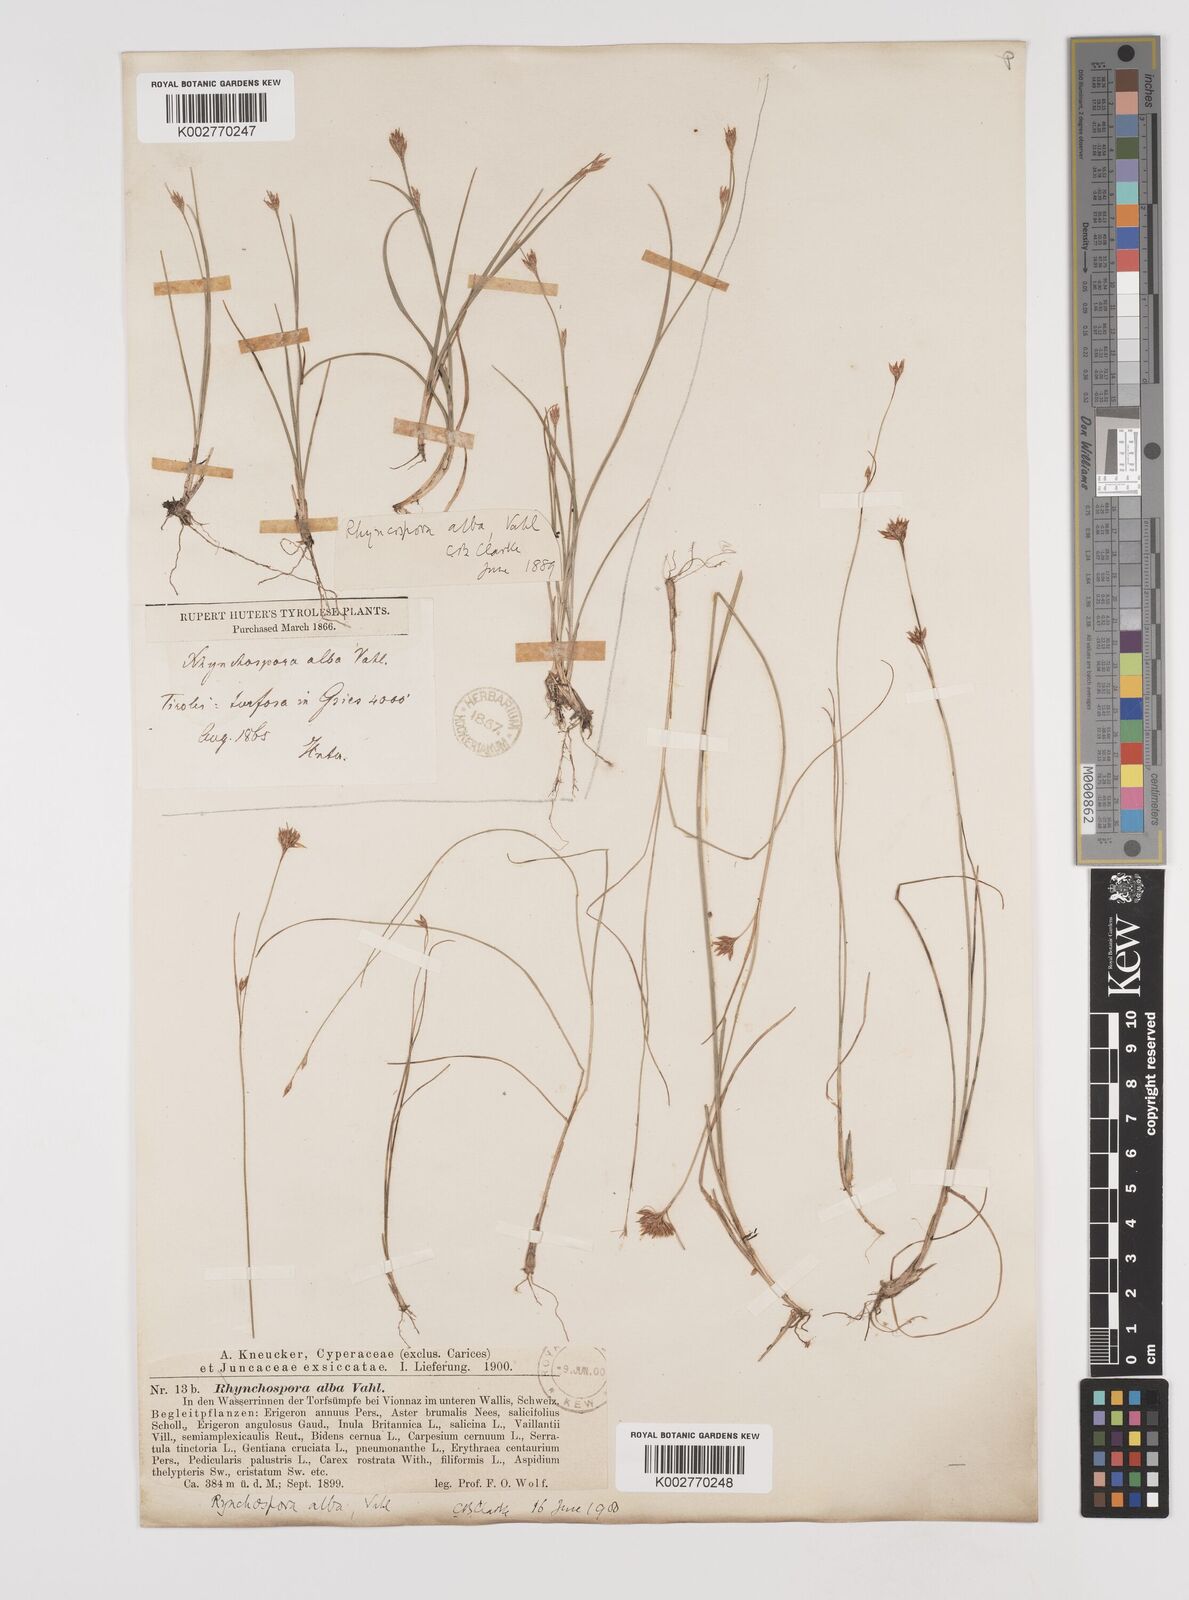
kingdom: Plantae
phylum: Tracheophyta
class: Liliopsida
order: Poales
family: Cyperaceae
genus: Rhynchospora
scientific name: Rhynchospora alba
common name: White beak-sedge
